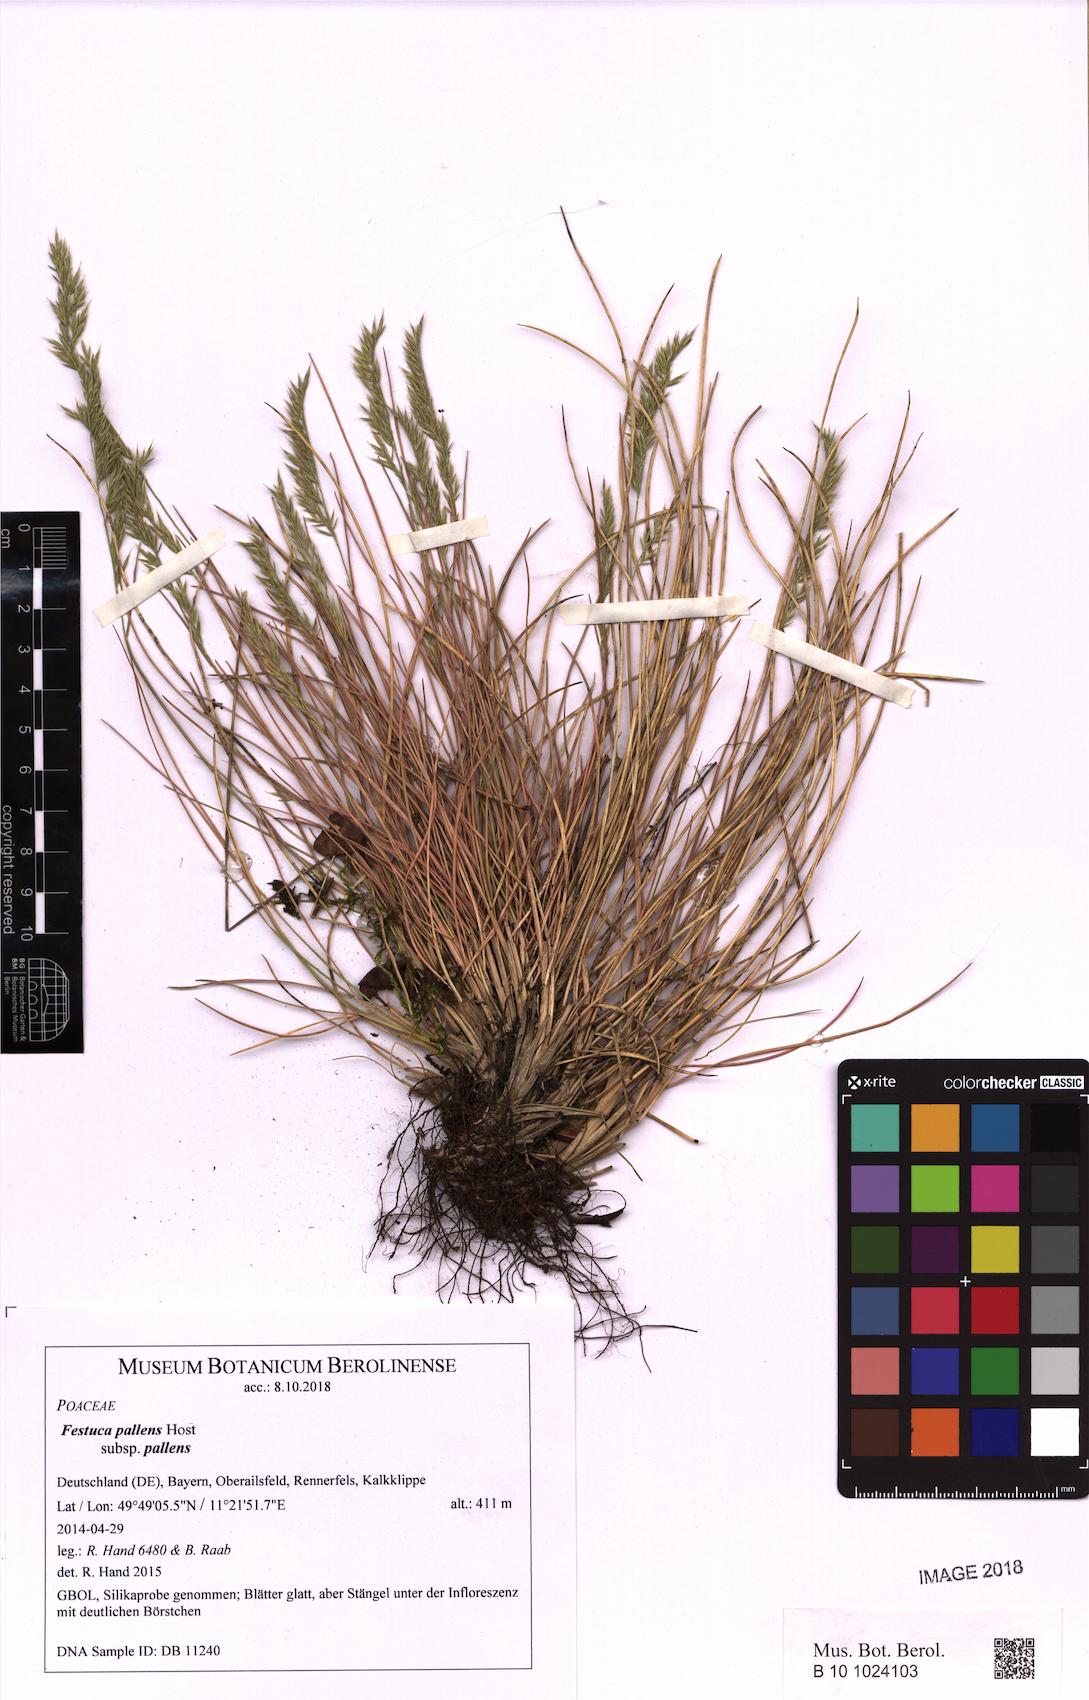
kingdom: Plantae
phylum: Tracheophyta
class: Liliopsida
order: Poales
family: Poaceae
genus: Festuca
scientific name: Festuca pallens
